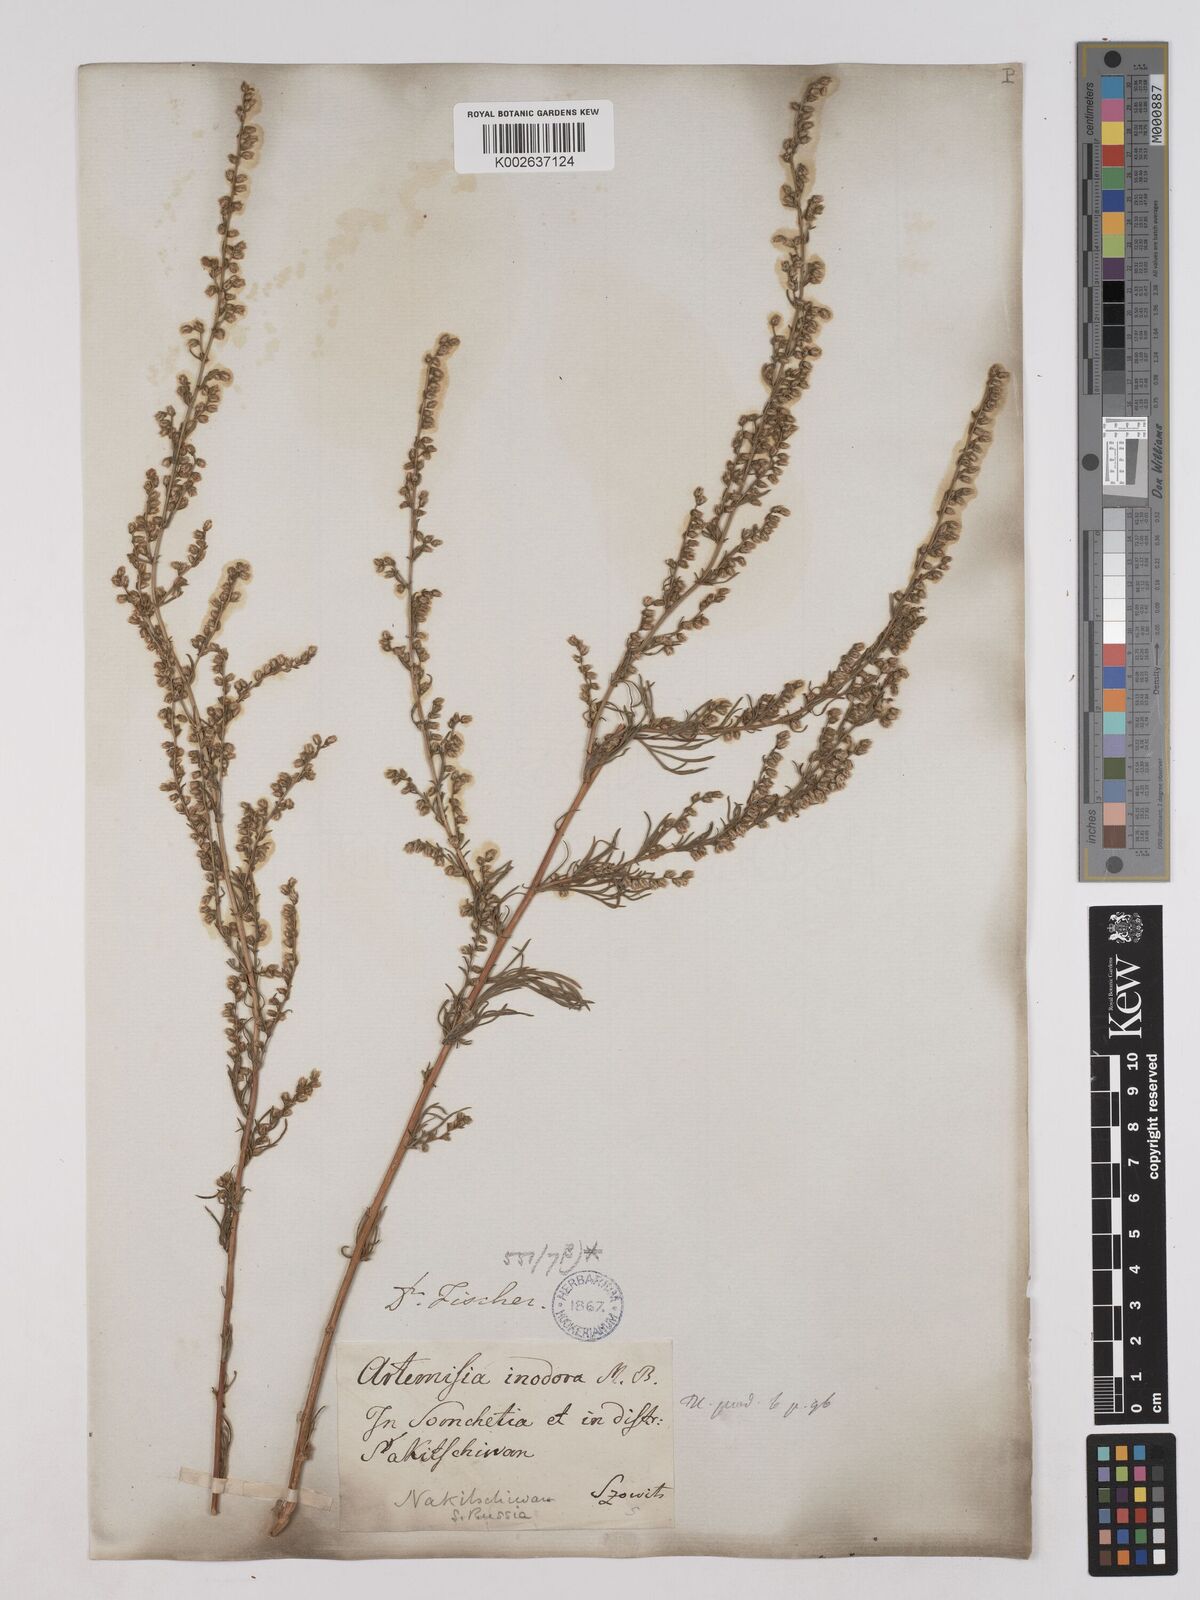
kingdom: Plantae
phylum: Tracheophyta
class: Magnoliopsida
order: Asterales
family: Asteraceae
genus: Artemisia
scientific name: Artemisia campestris
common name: Field wormwood
